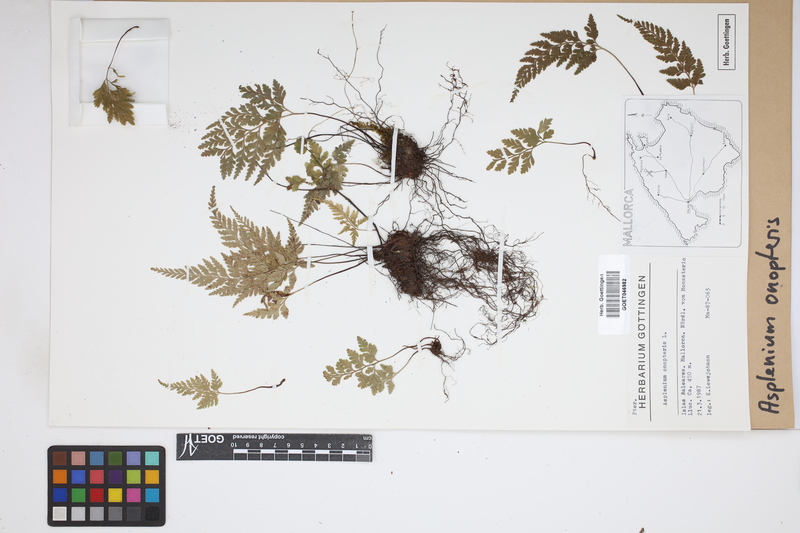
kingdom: Plantae
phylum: Tracheophyta
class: Polypodiopsida
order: Polypodiales
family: Aspleniaceae
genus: Asplenium
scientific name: Asplenium onopteris
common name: Irish spleenwort
